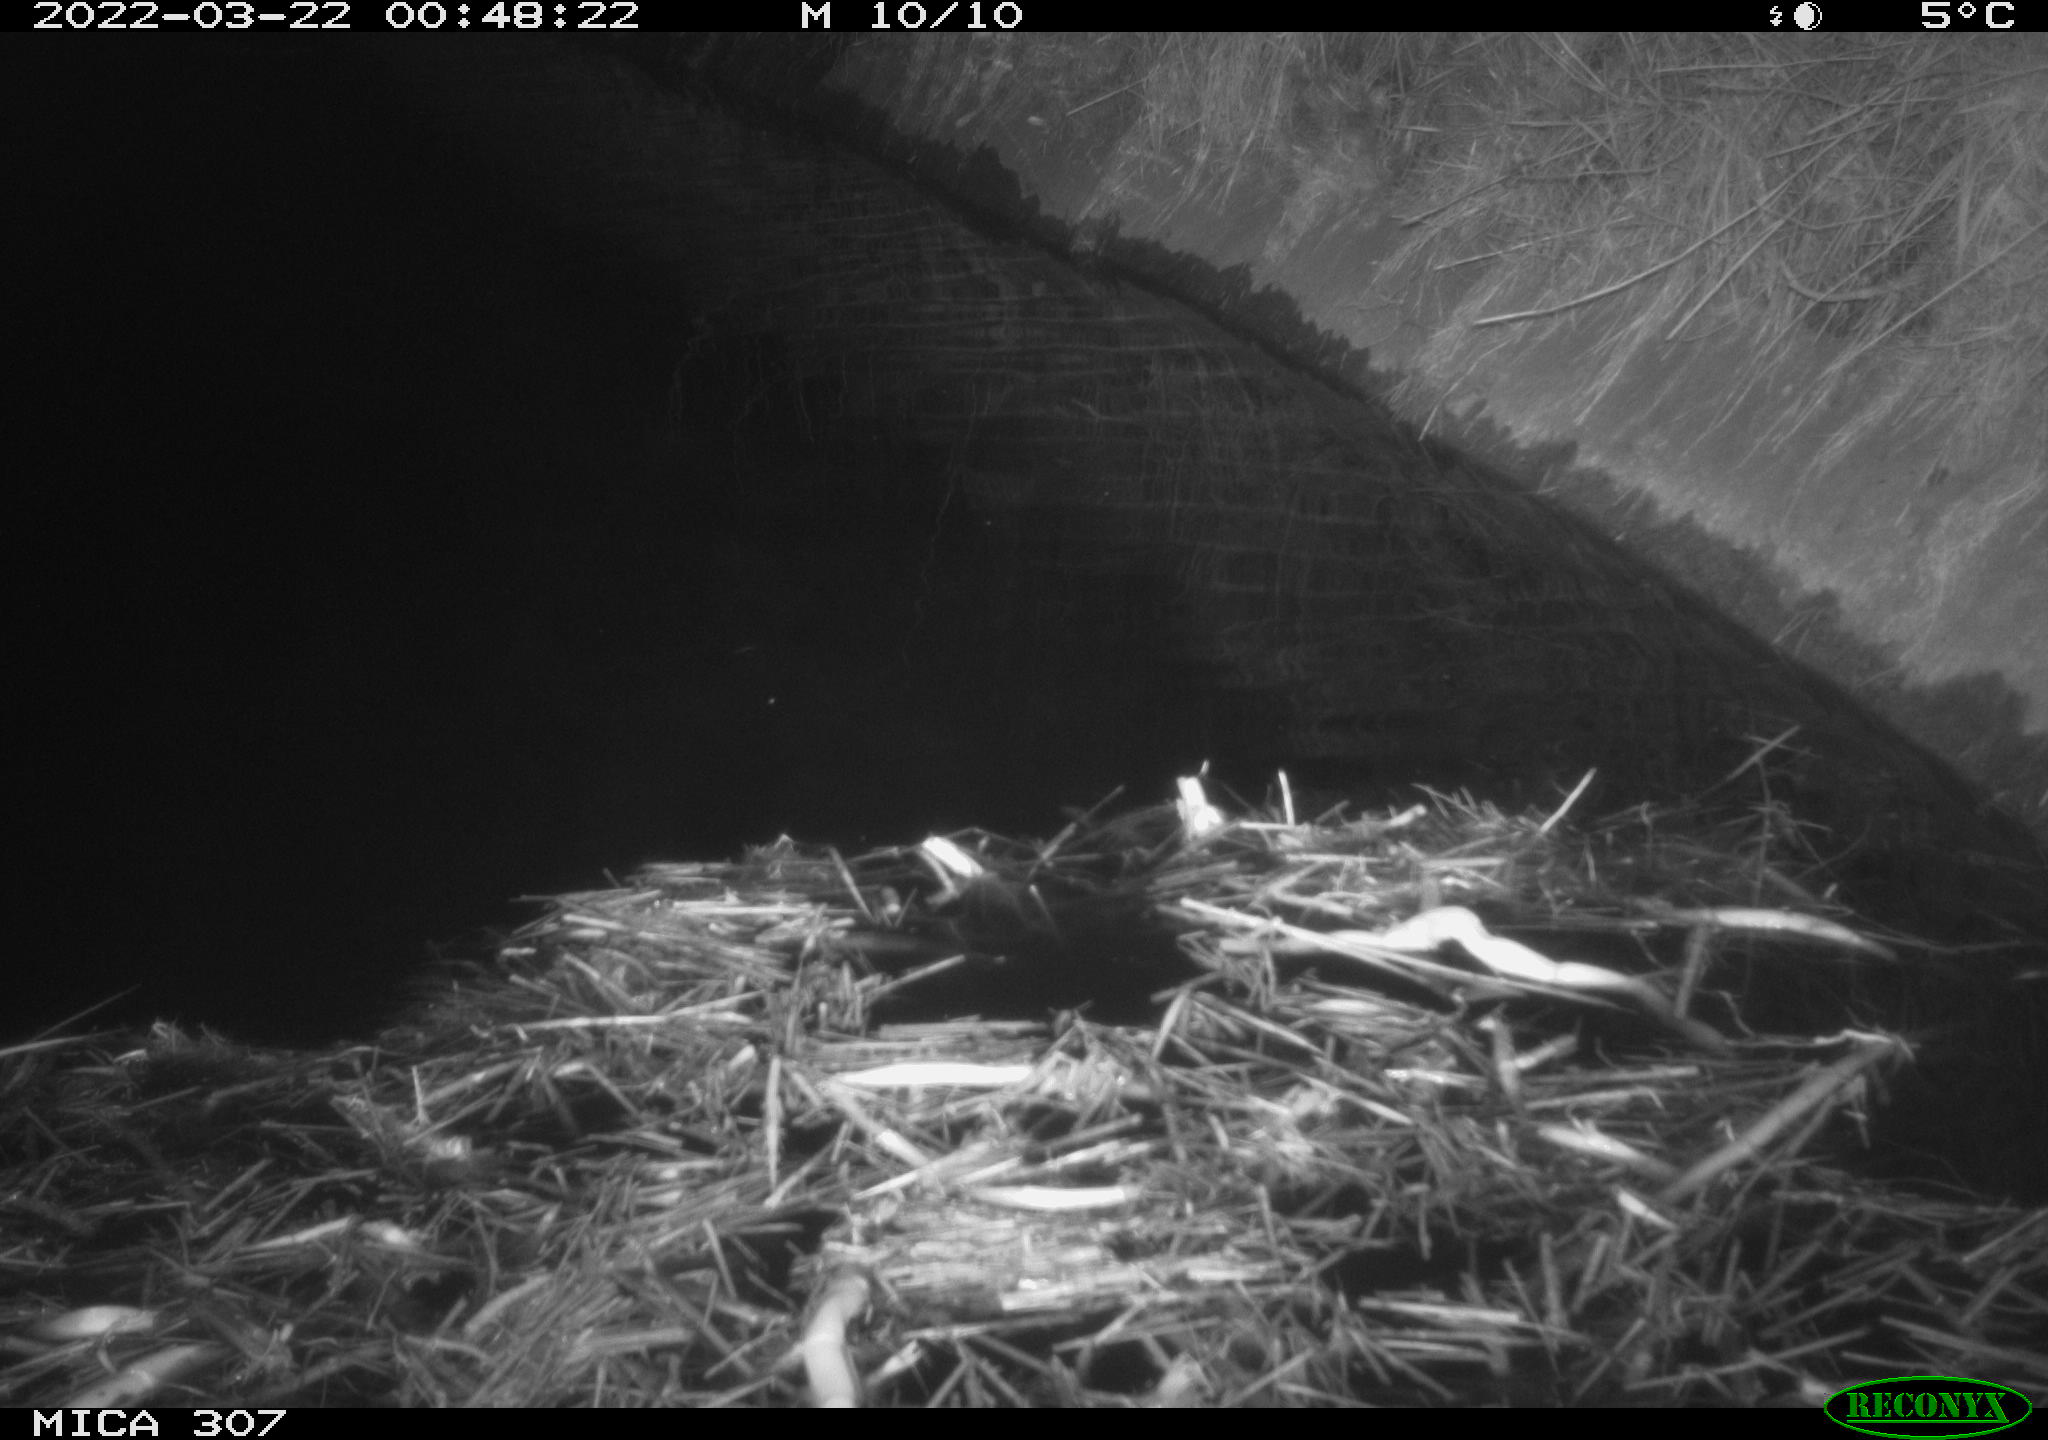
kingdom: Animalia
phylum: Chordata
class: Mammalia
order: Rodentia
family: Muridae
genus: Rattus
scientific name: Rattus norvegicus
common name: Brown rat
